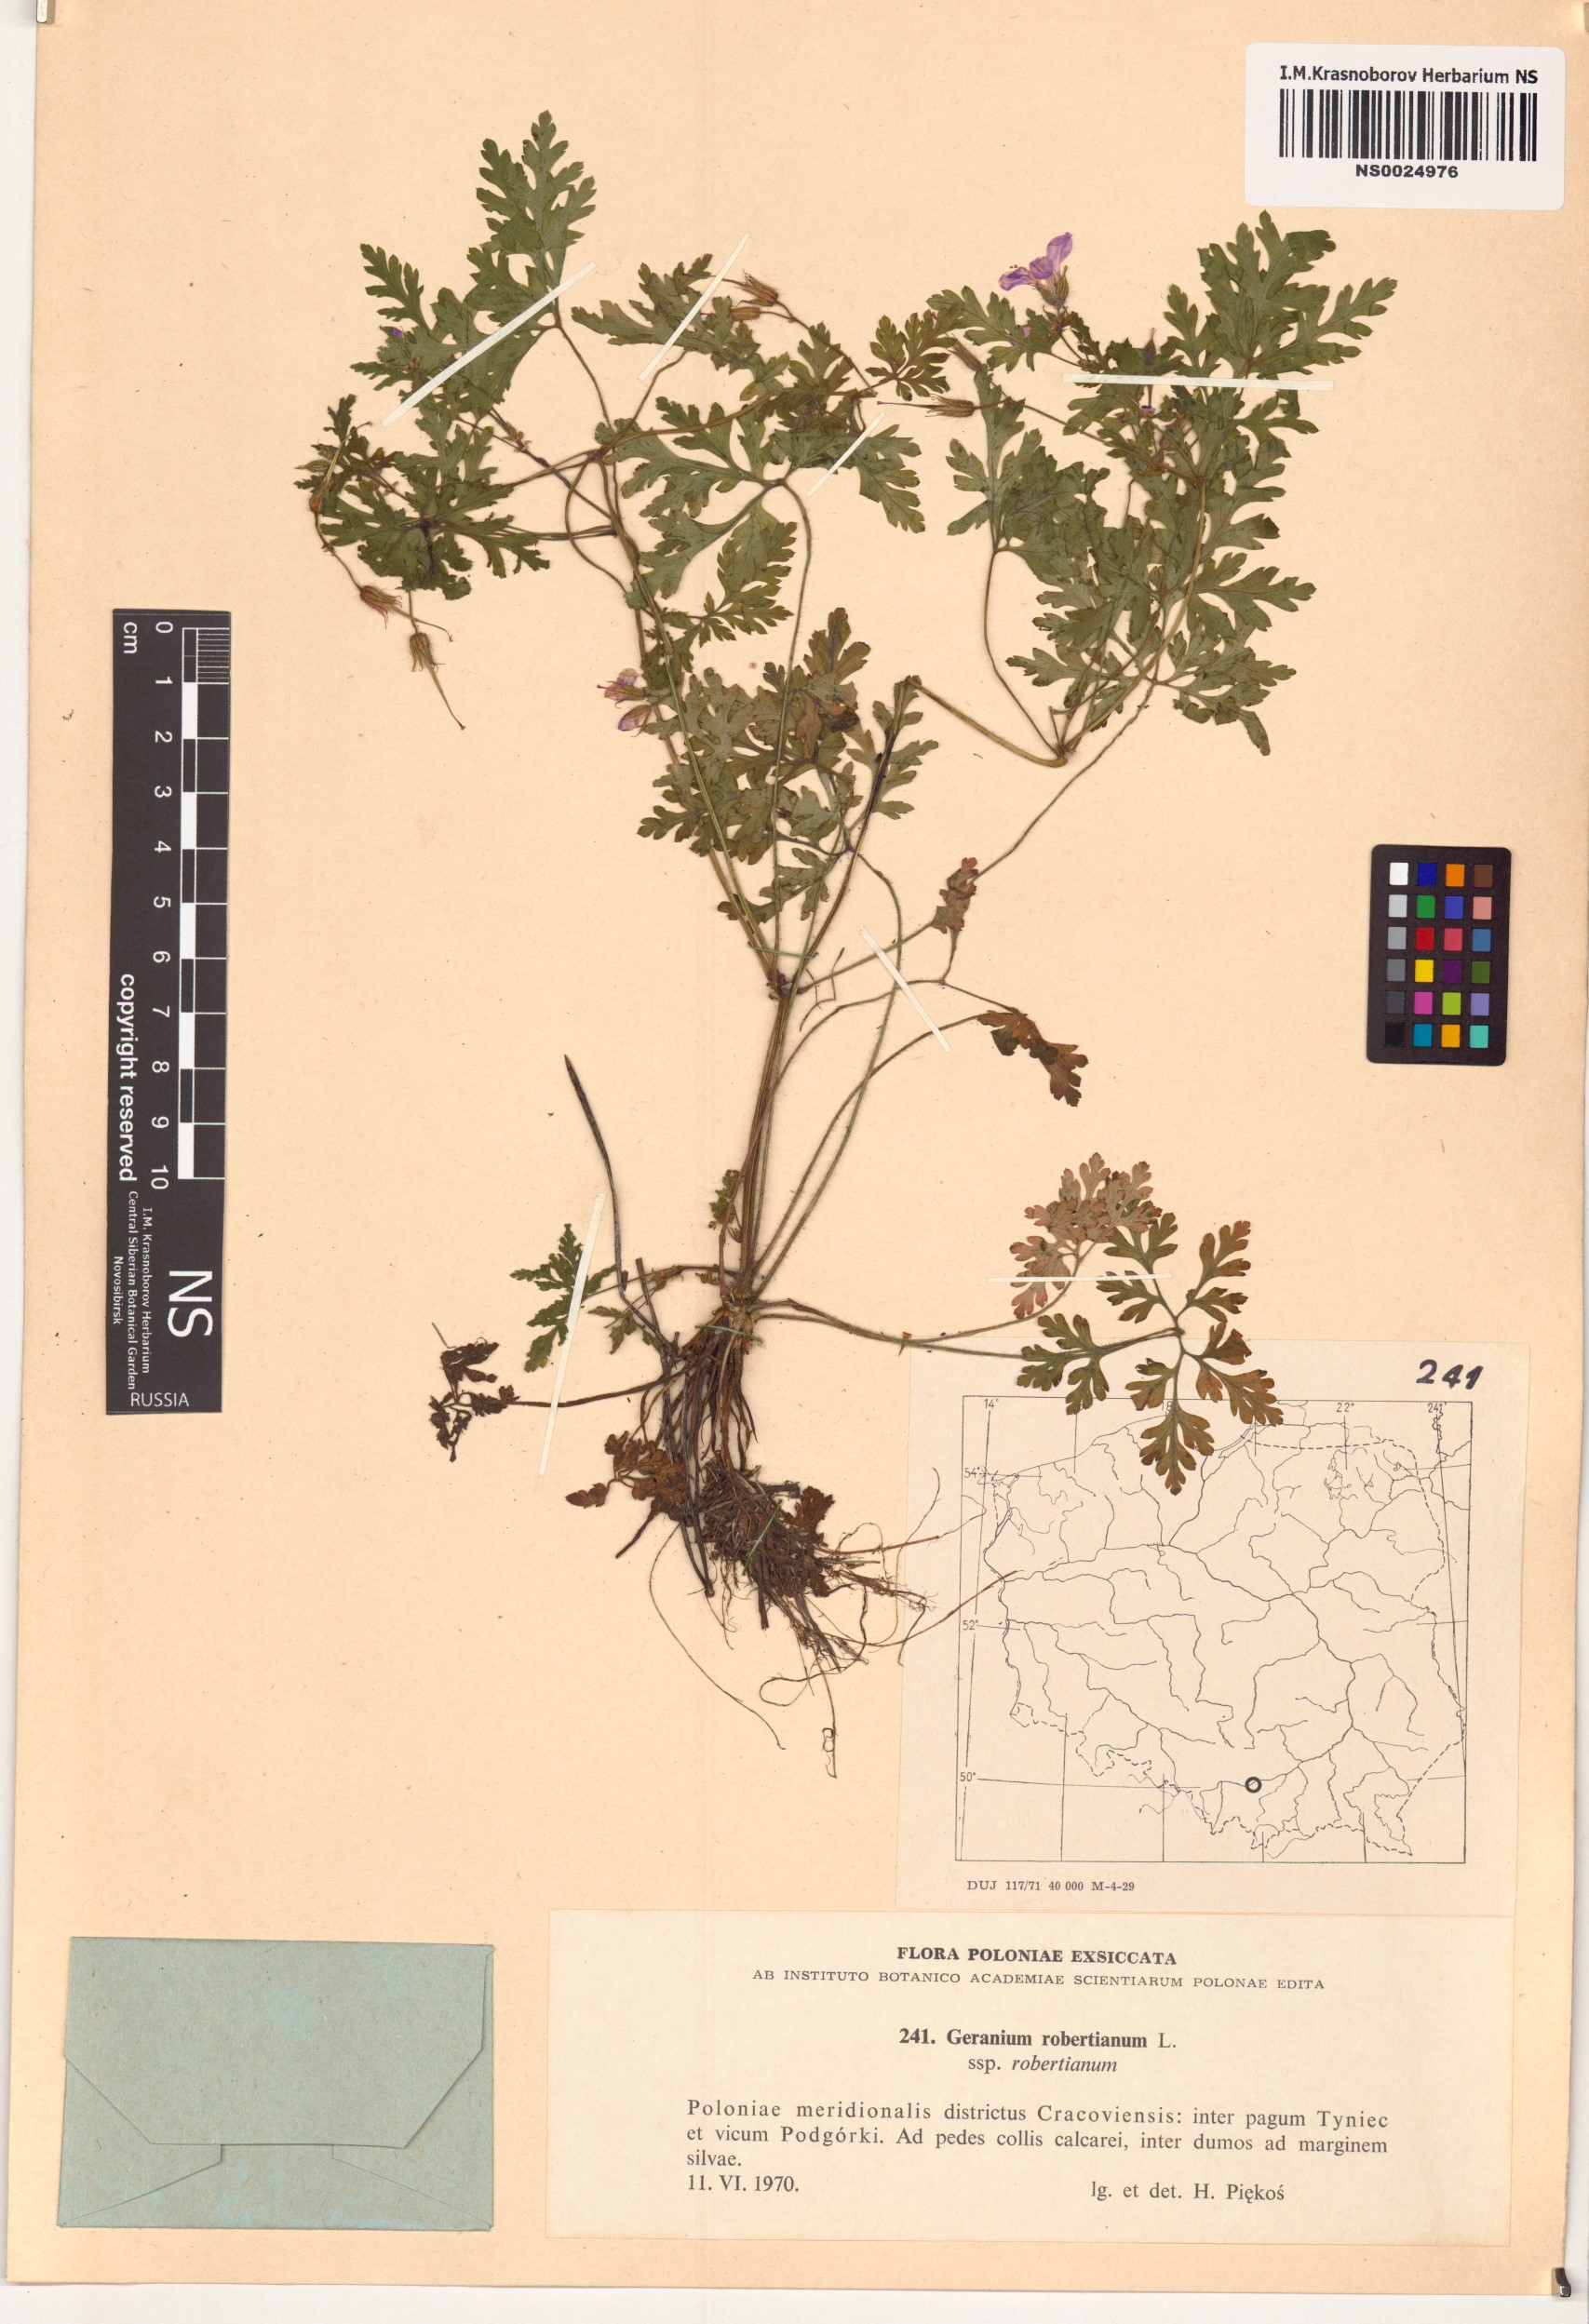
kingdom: Plantae
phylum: Tracheophyta
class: Magnoliopsida
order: Geraniales
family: Geraniaceae
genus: Geranium
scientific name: Geranium robertianum
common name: Herb-robert
